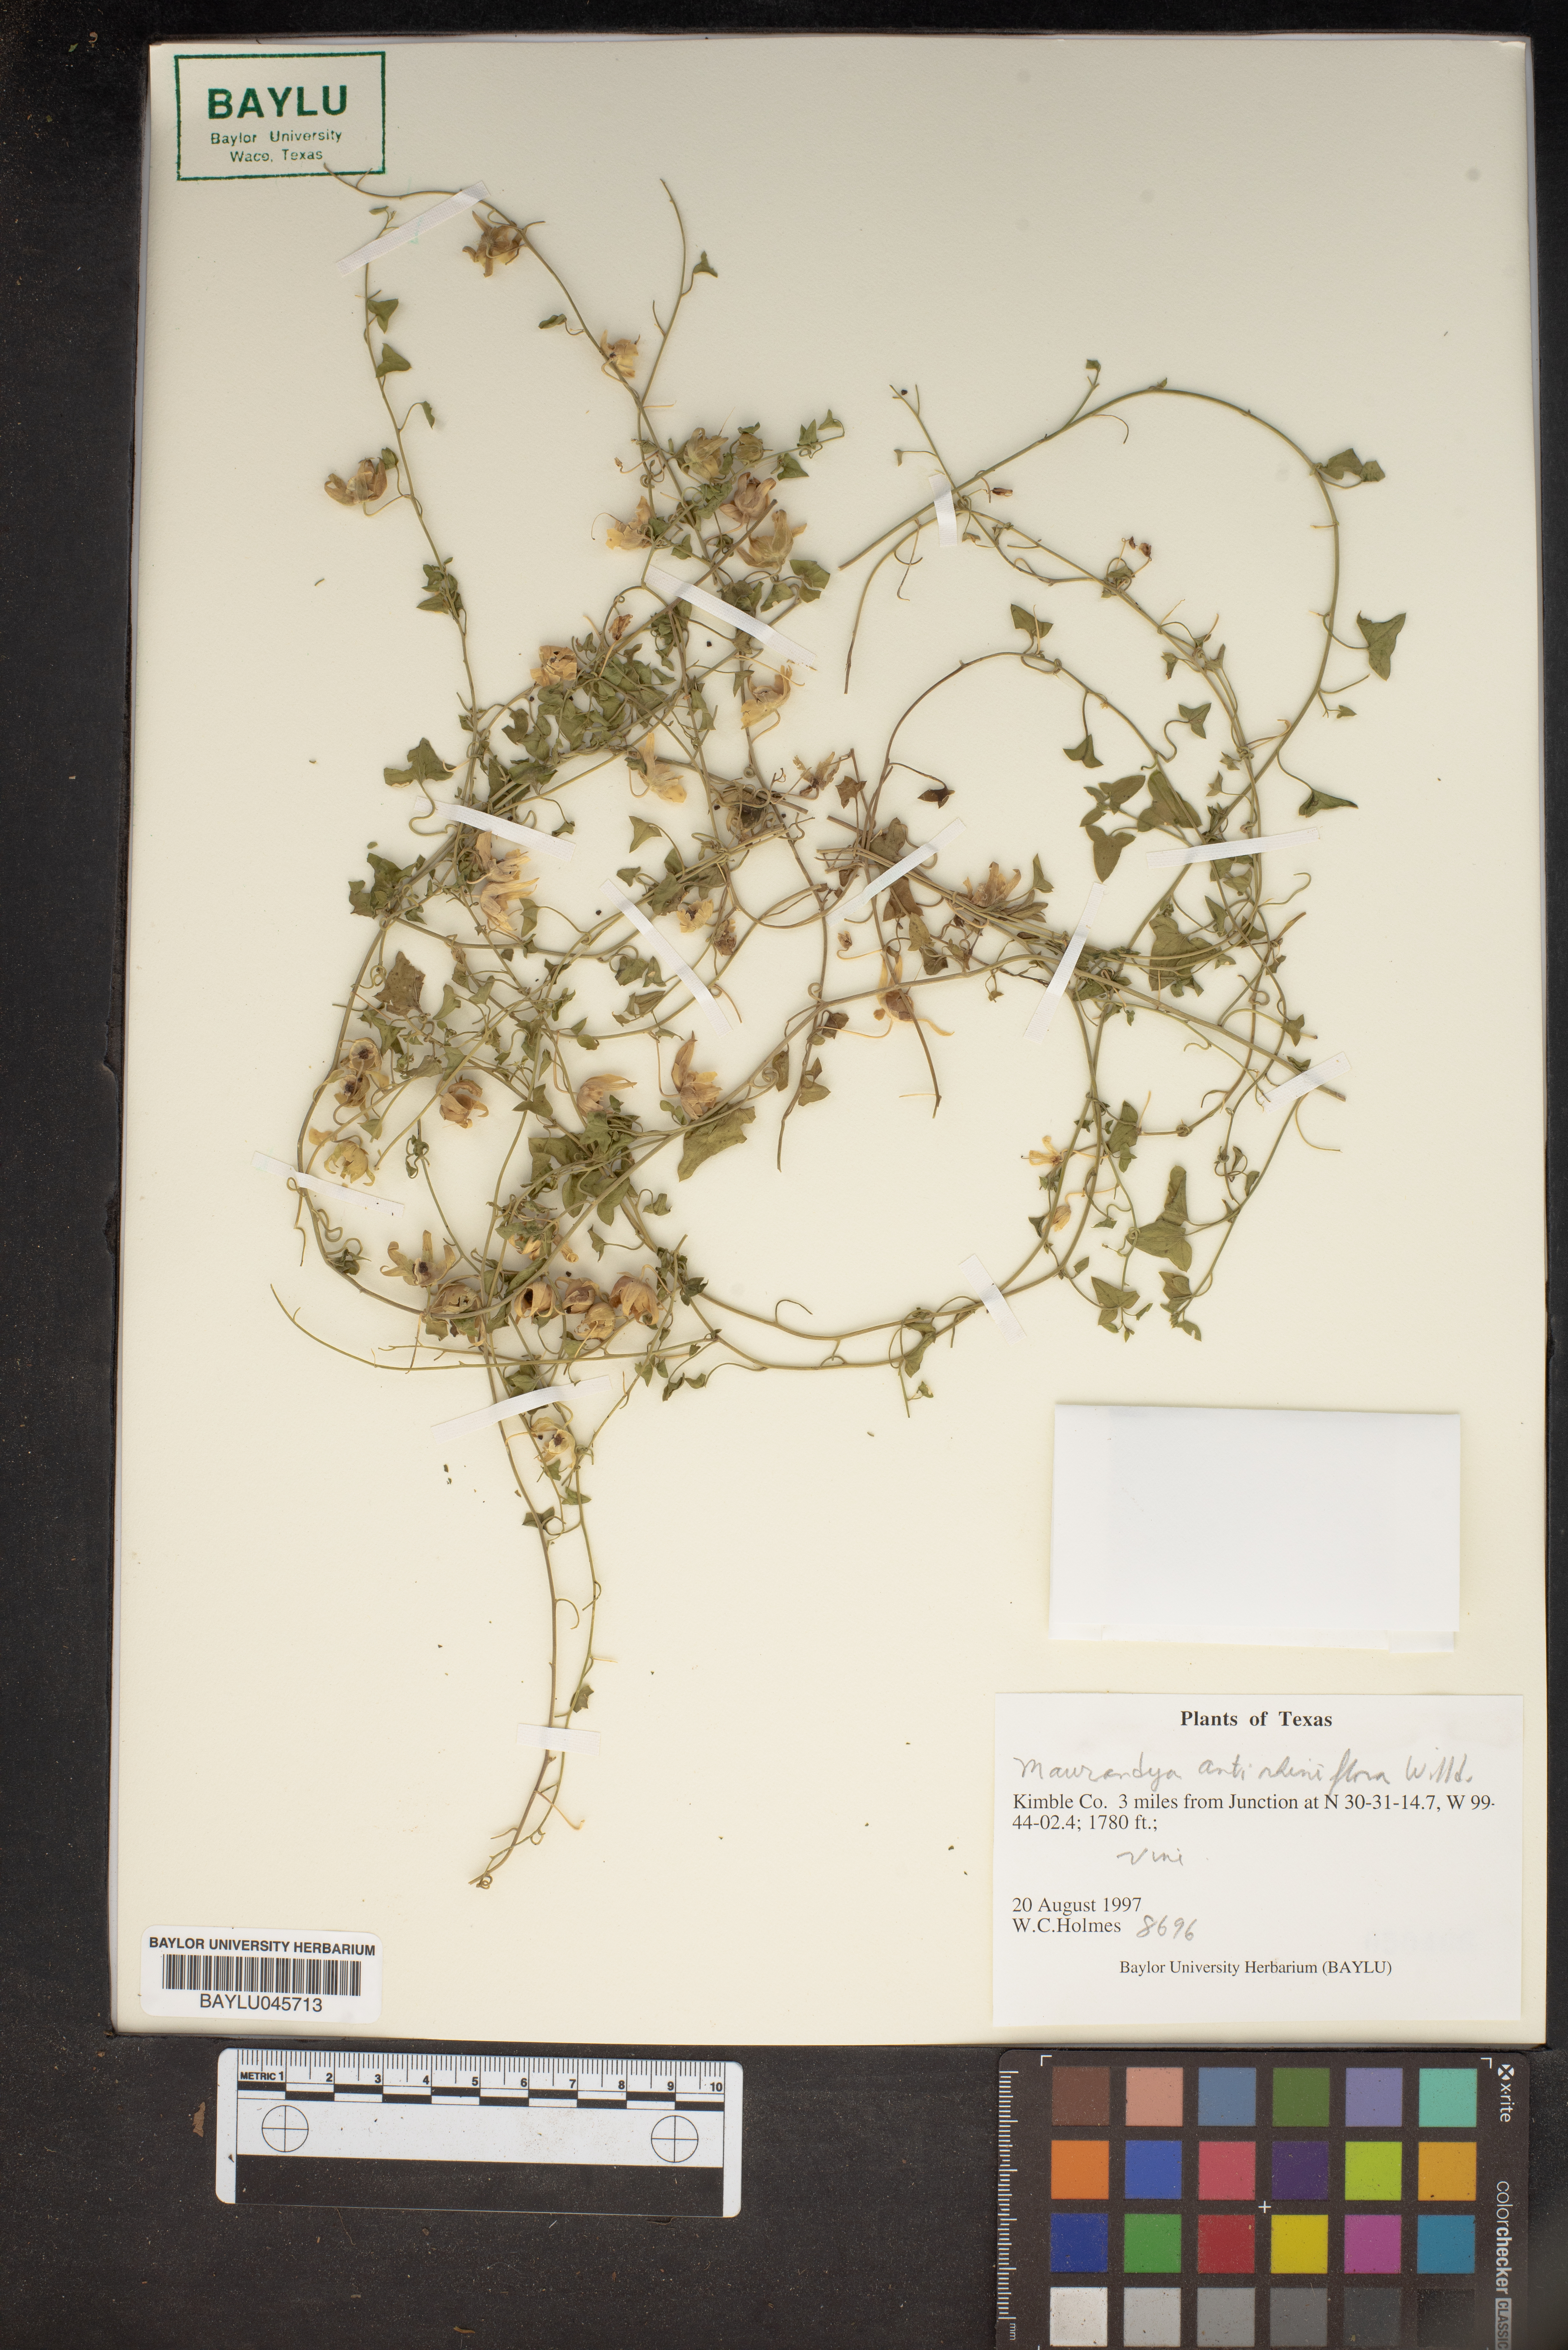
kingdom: Plantae
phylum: Tracheophyta
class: Magnoliopsida
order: Lamiales
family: Plantaginaceae
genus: Maurandella
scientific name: Maurandella antirrhiniflora
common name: Violet twining-snapdragon
